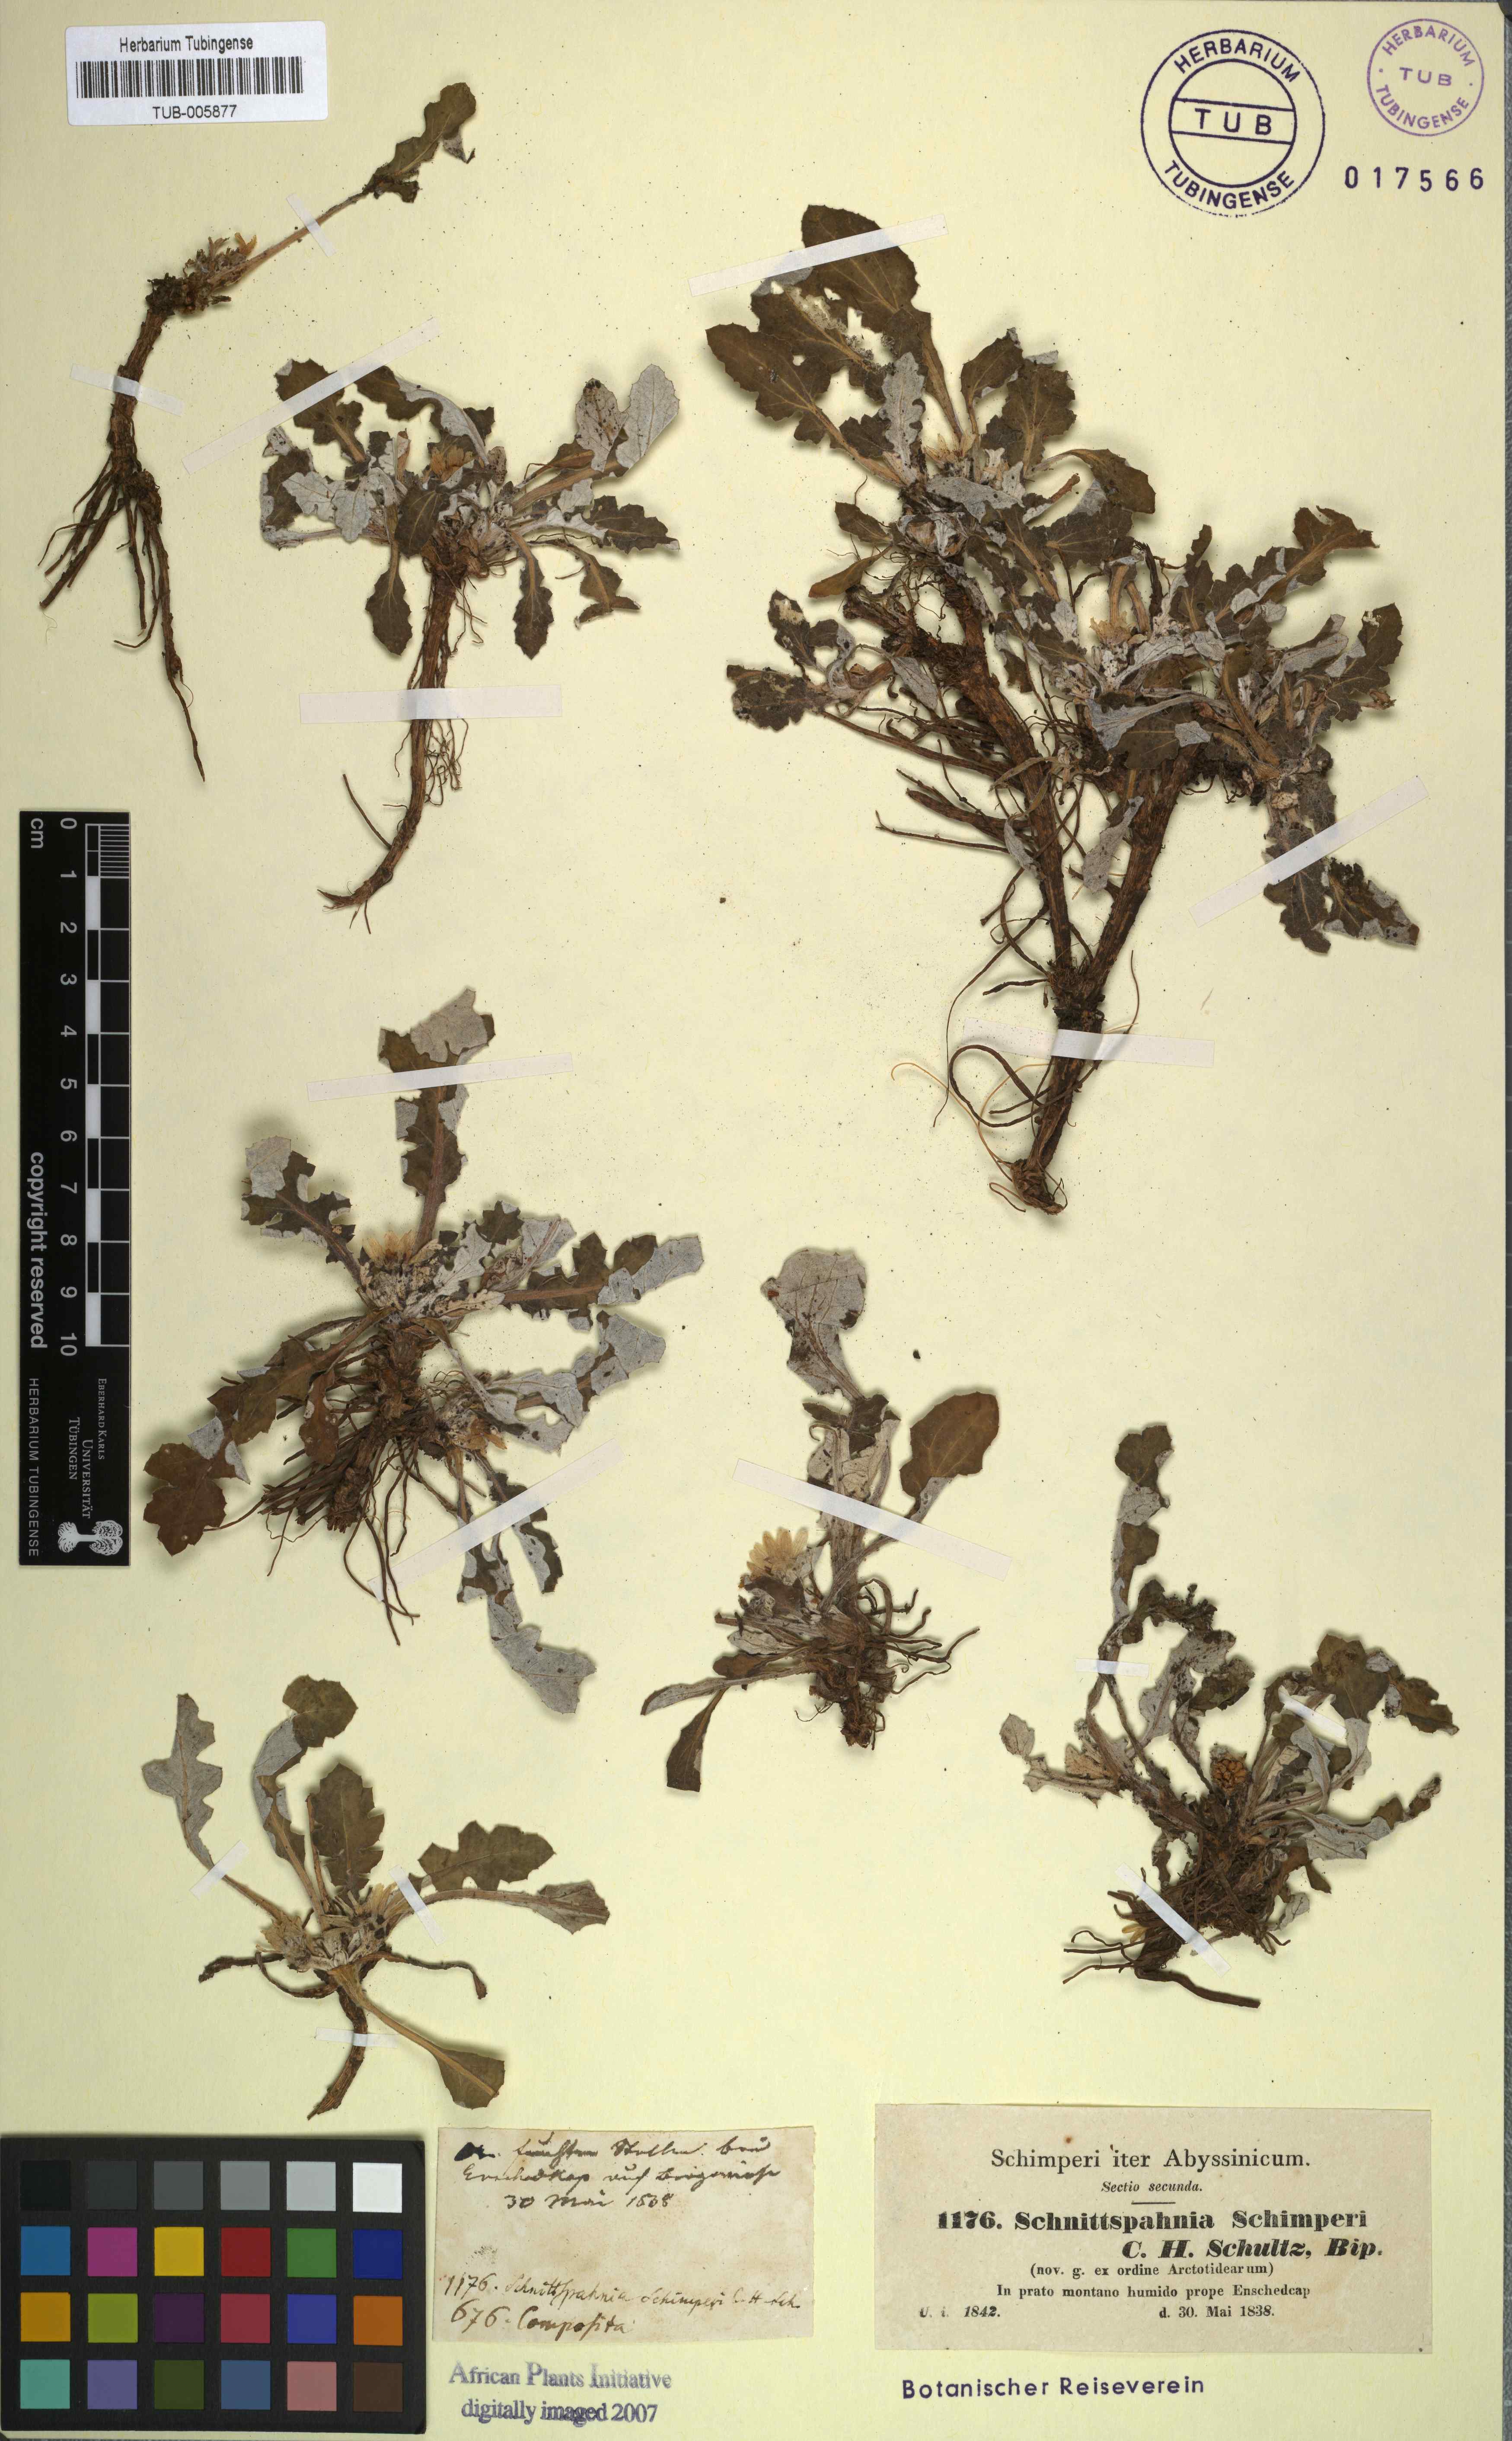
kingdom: Plantae
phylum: Tracheophyta
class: Magnoliopsida
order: Asterales
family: Asteraceae
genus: Haplocarpha
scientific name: Haplocarpha schimperi
